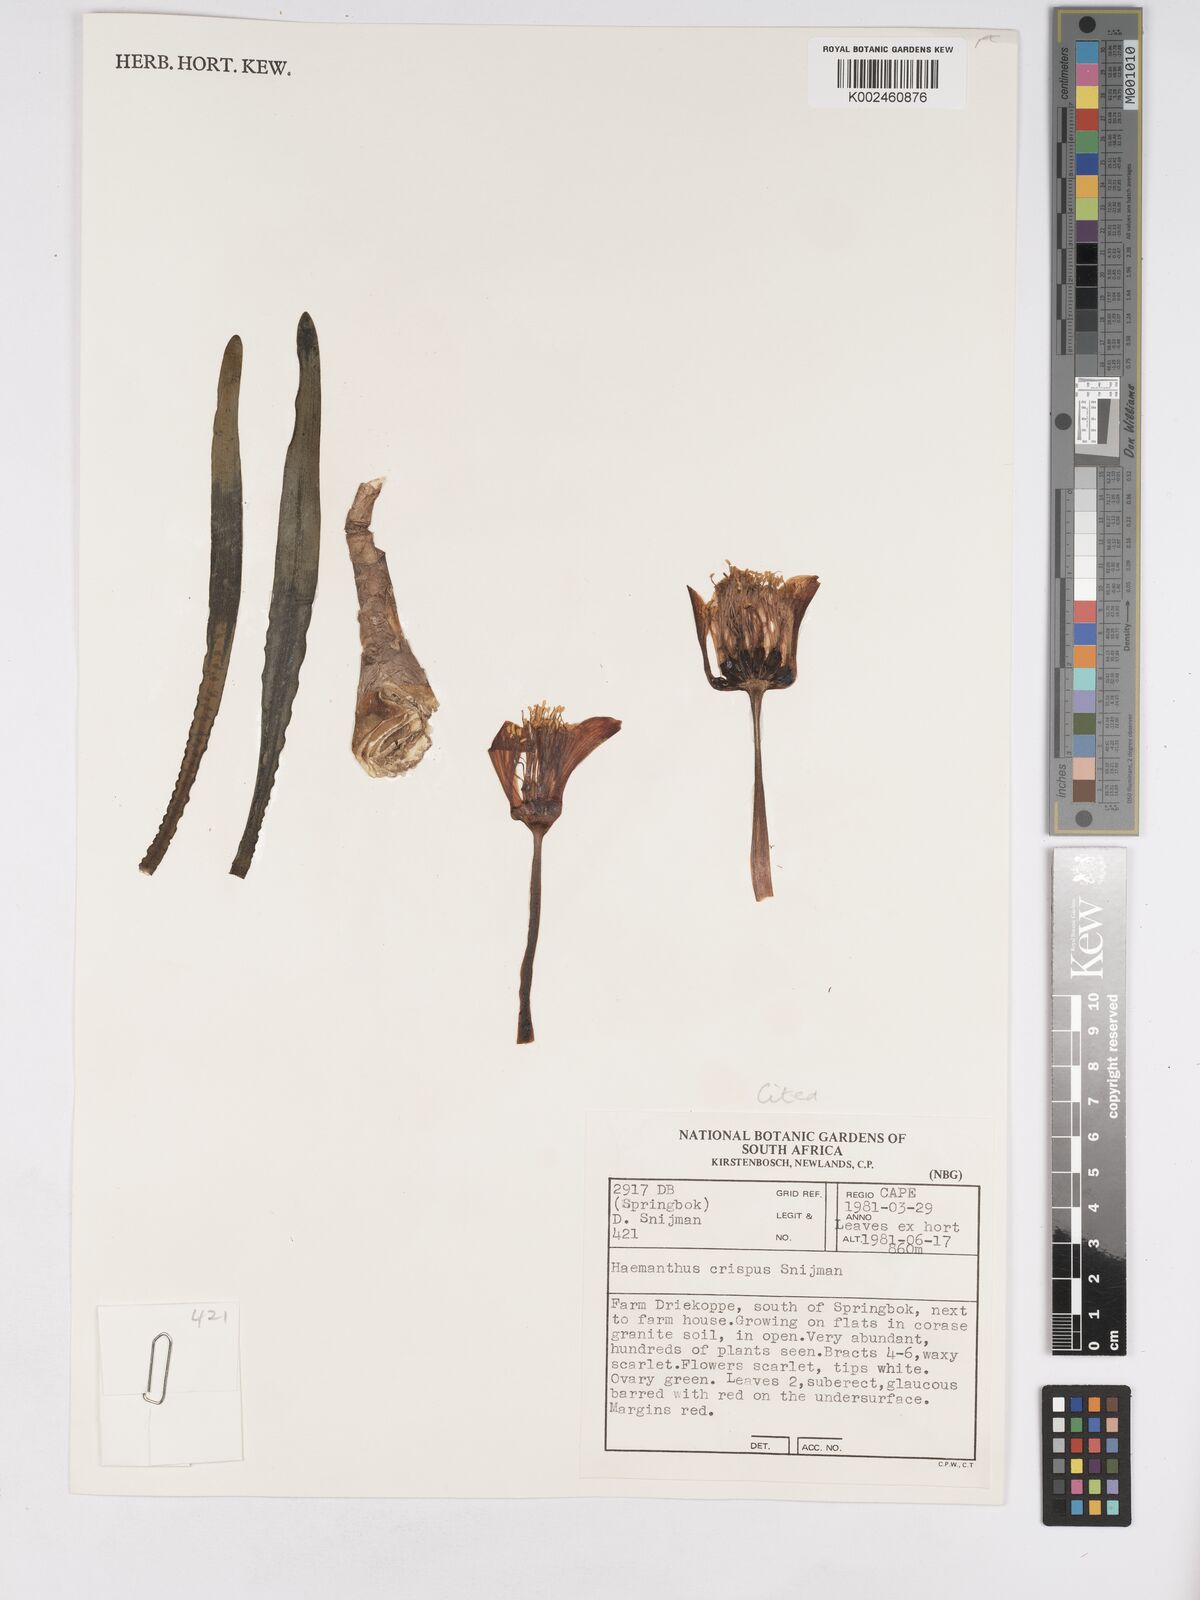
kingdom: Plantae
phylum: Tracheophyta
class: Liliopsida
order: Asparagales
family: Amaryllidaceae
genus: Haemanthus
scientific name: Haemanthus crispus
